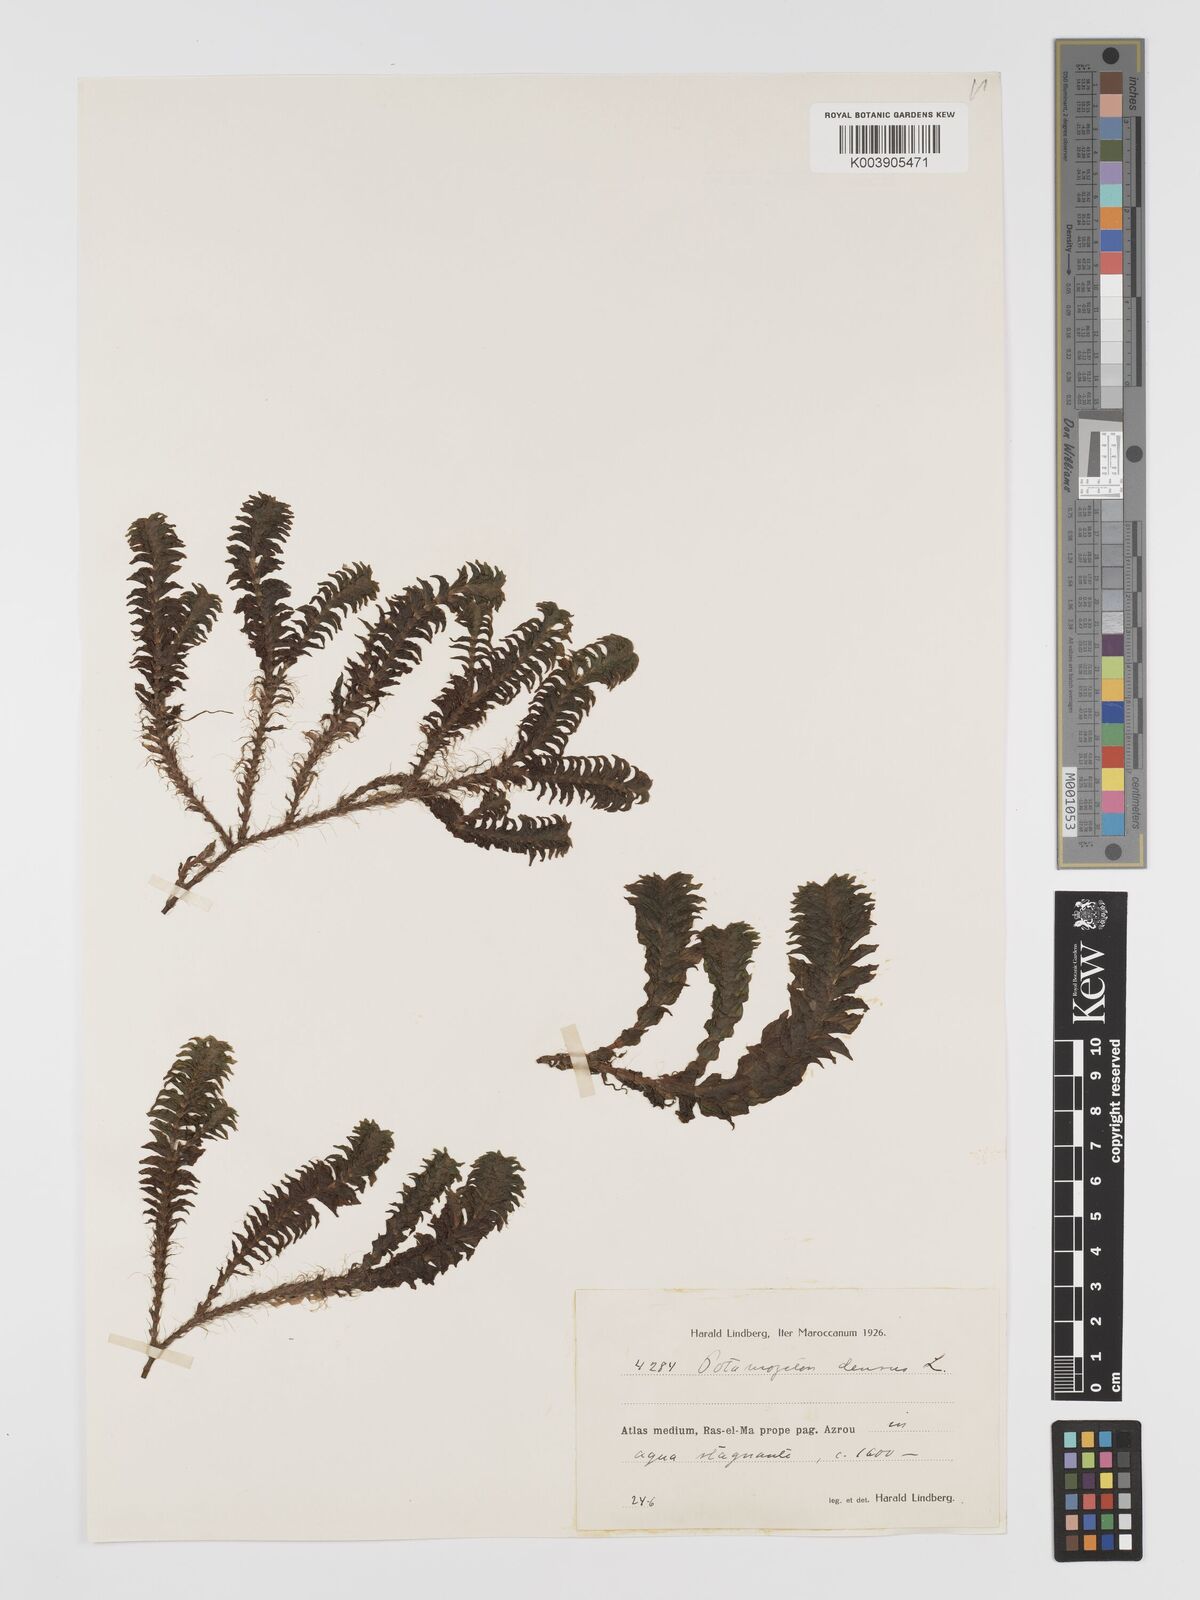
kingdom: Plantae
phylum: Tracheophyta
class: Liliopsida
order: Alismatales
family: Potamogetonaceae
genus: Groenlandia
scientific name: Groenlandia densa
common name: Opposite-leaved pondweed
